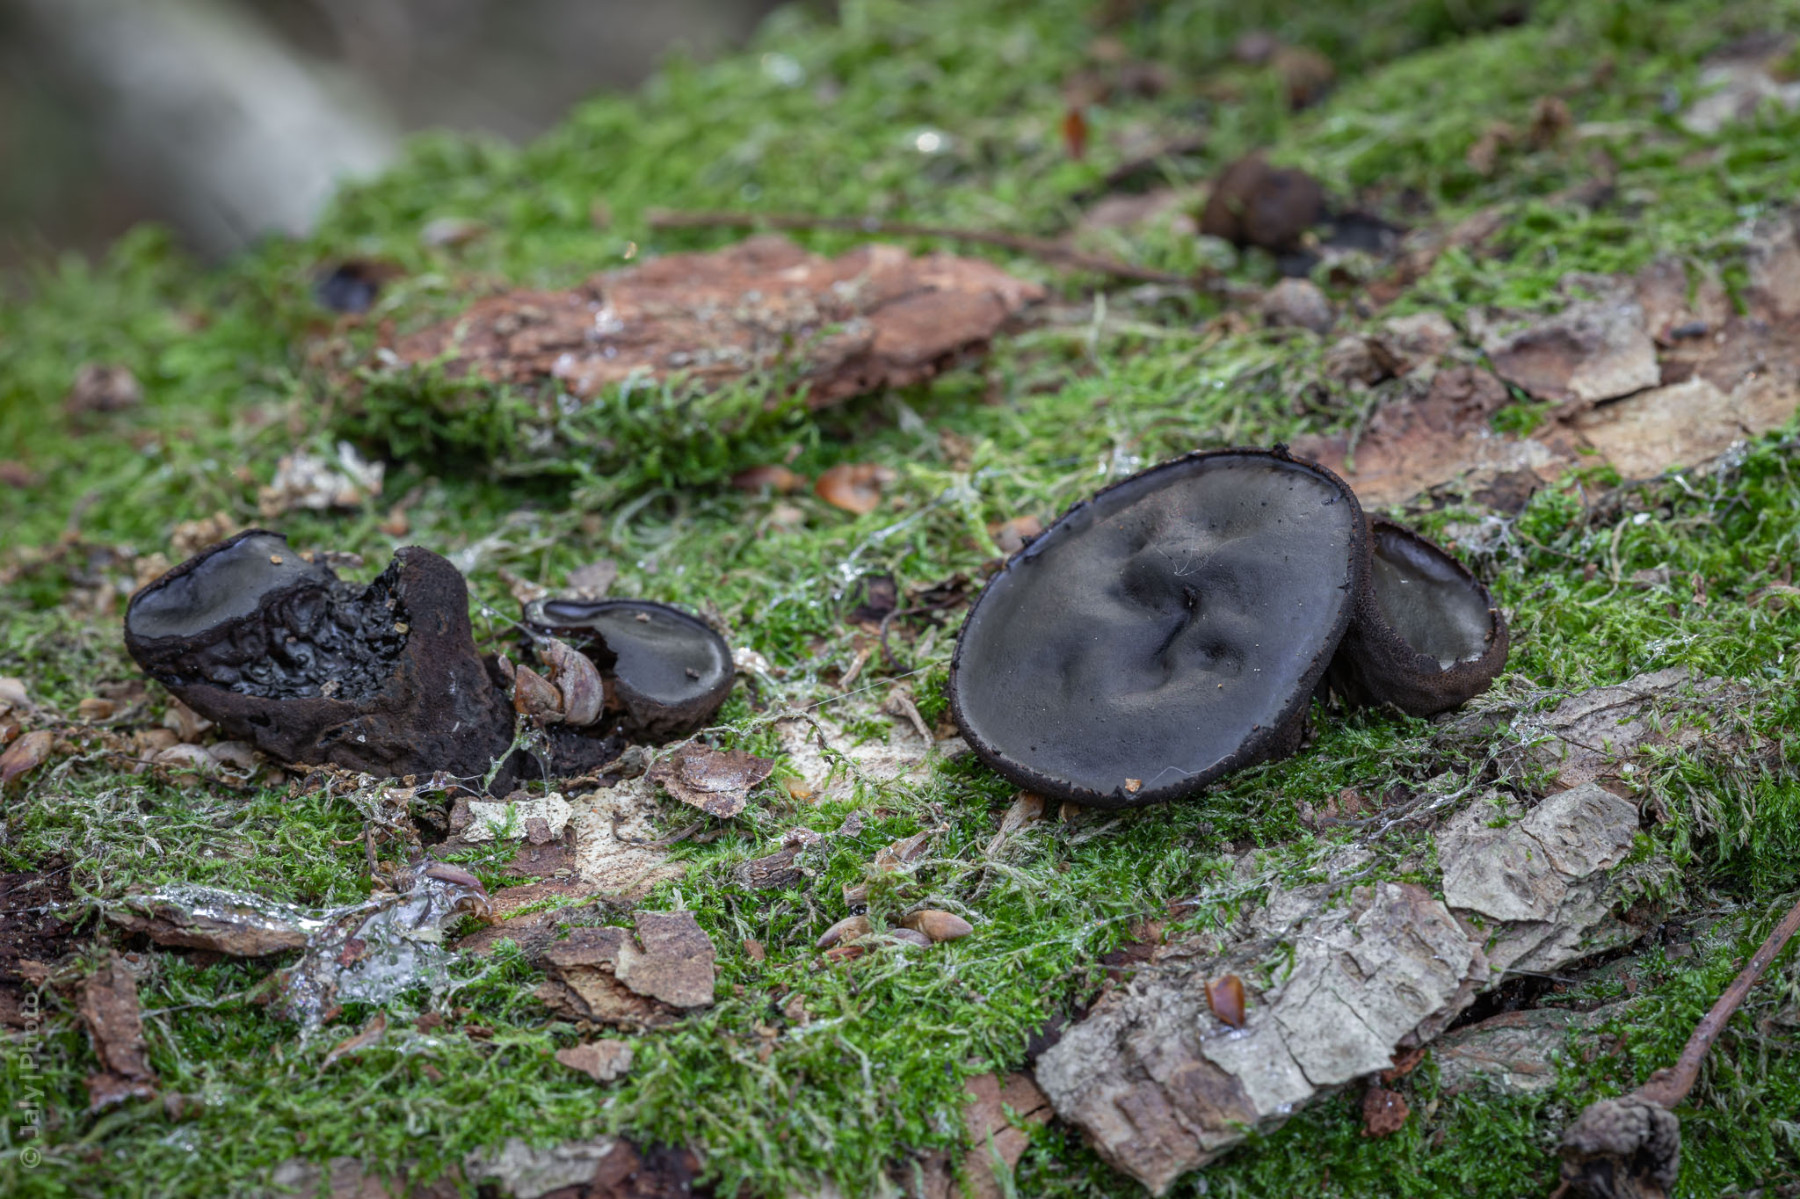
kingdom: Fungi
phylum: Ascomycota
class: Leotiomycetes
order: Phacidiales
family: Phacidiaceae
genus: Bulgaria
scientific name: Bulgaria inquinans
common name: afsmittende topsvamp
